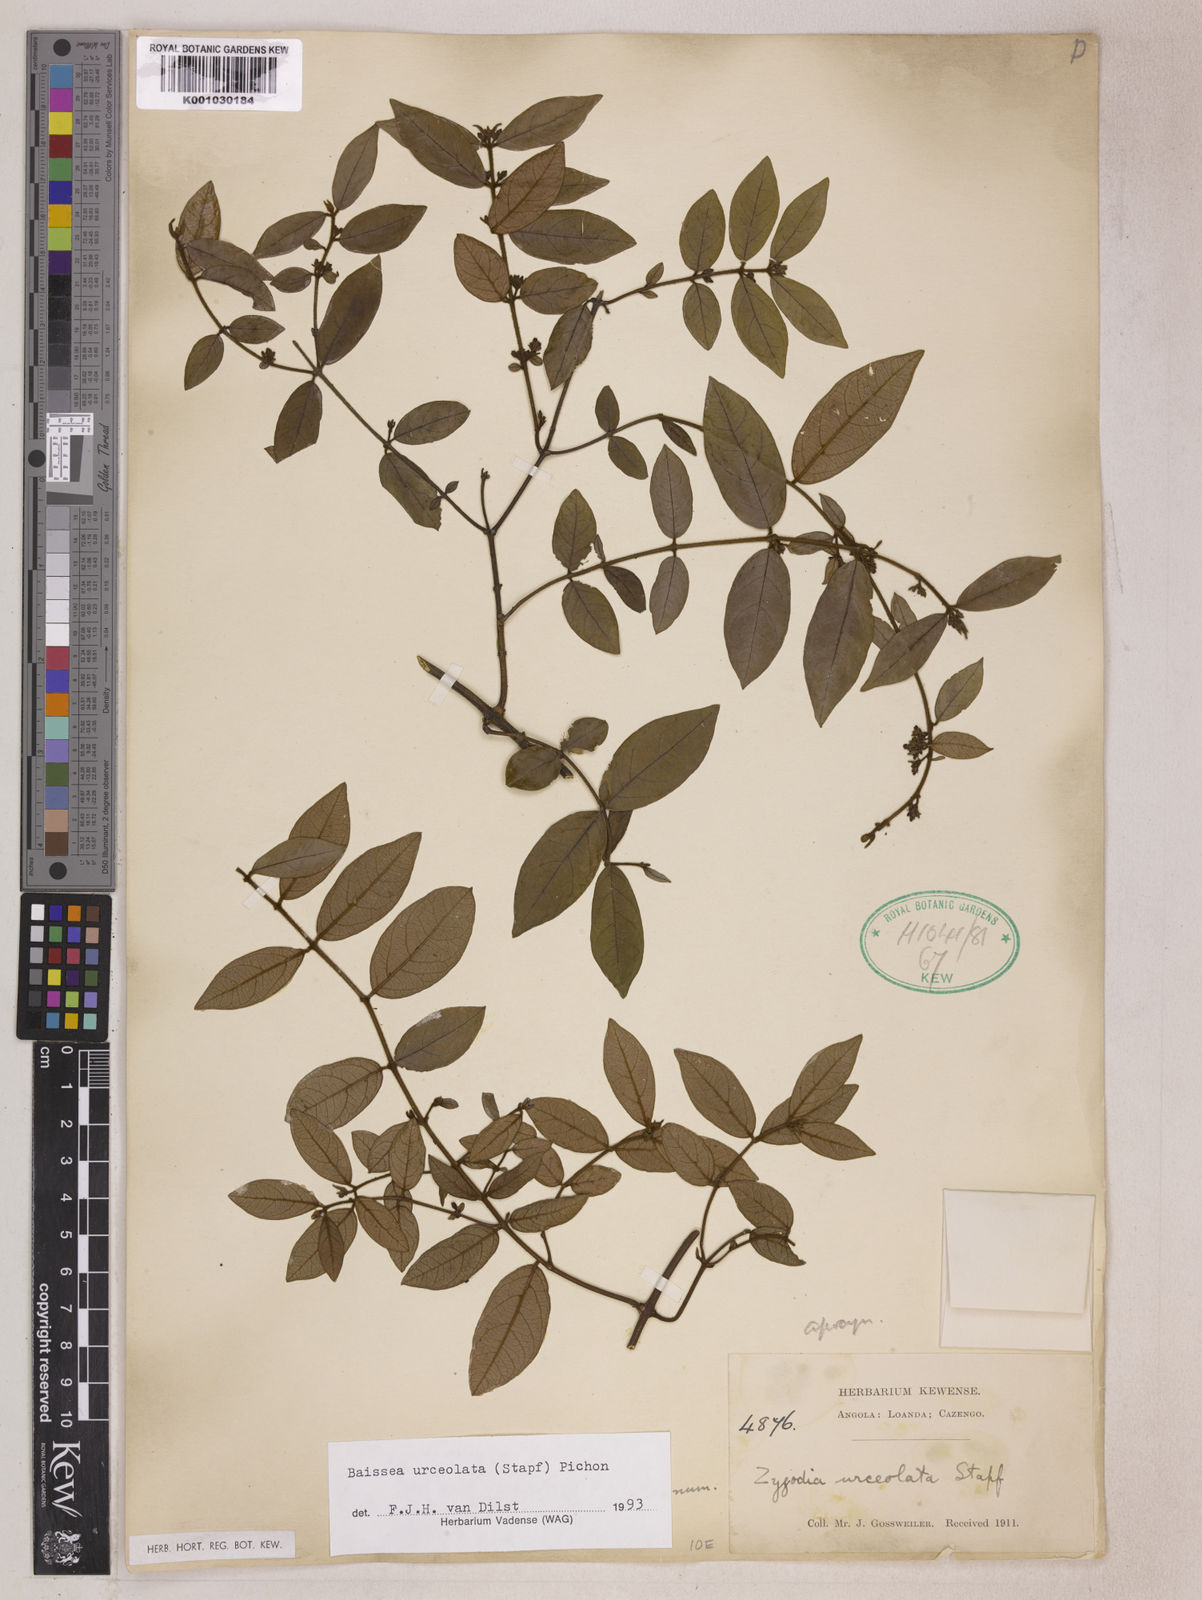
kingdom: Plantae
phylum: Tracheophyta
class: Magnoliopsida
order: Gentianales
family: Apocynaceae
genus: Baissea
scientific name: Baissea myrtifolia
